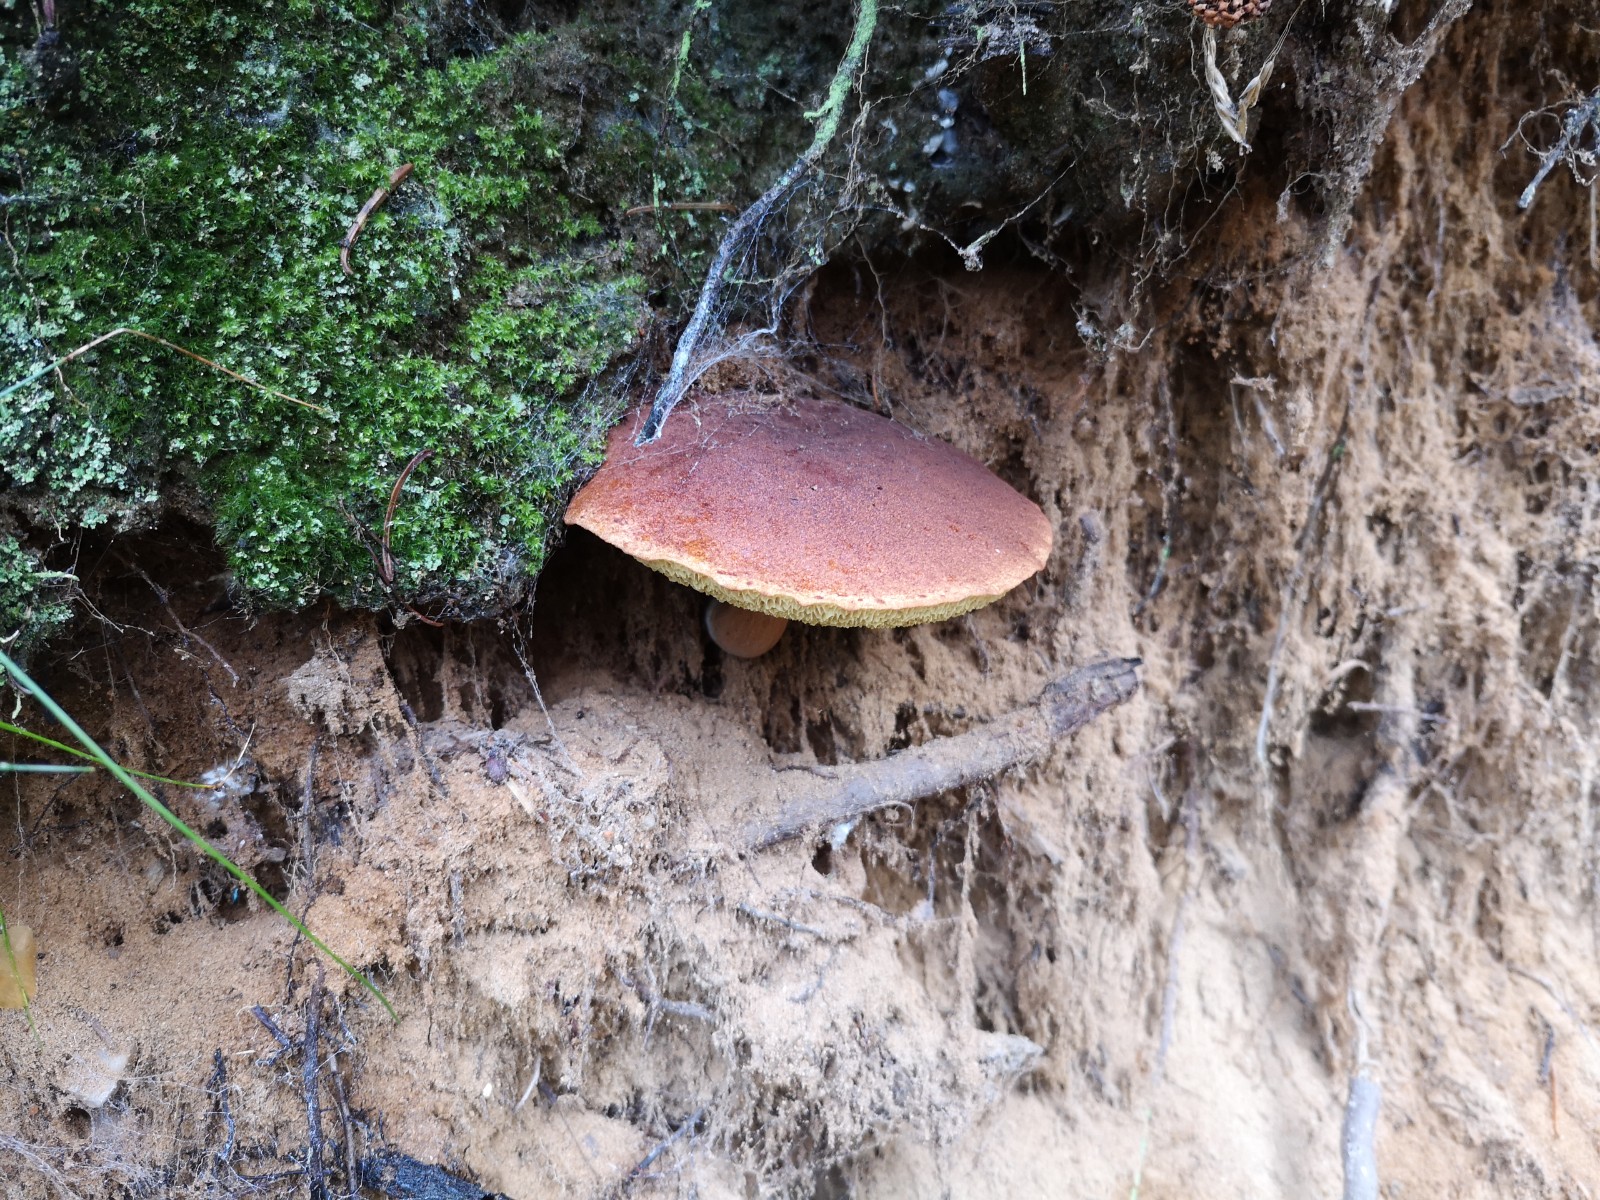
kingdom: Fungi
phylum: Basidiomycota
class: Agaricomycetes
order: Boletales
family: Boletaceae
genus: Imleria
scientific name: Imleria badia
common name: brunstokket rørhat
